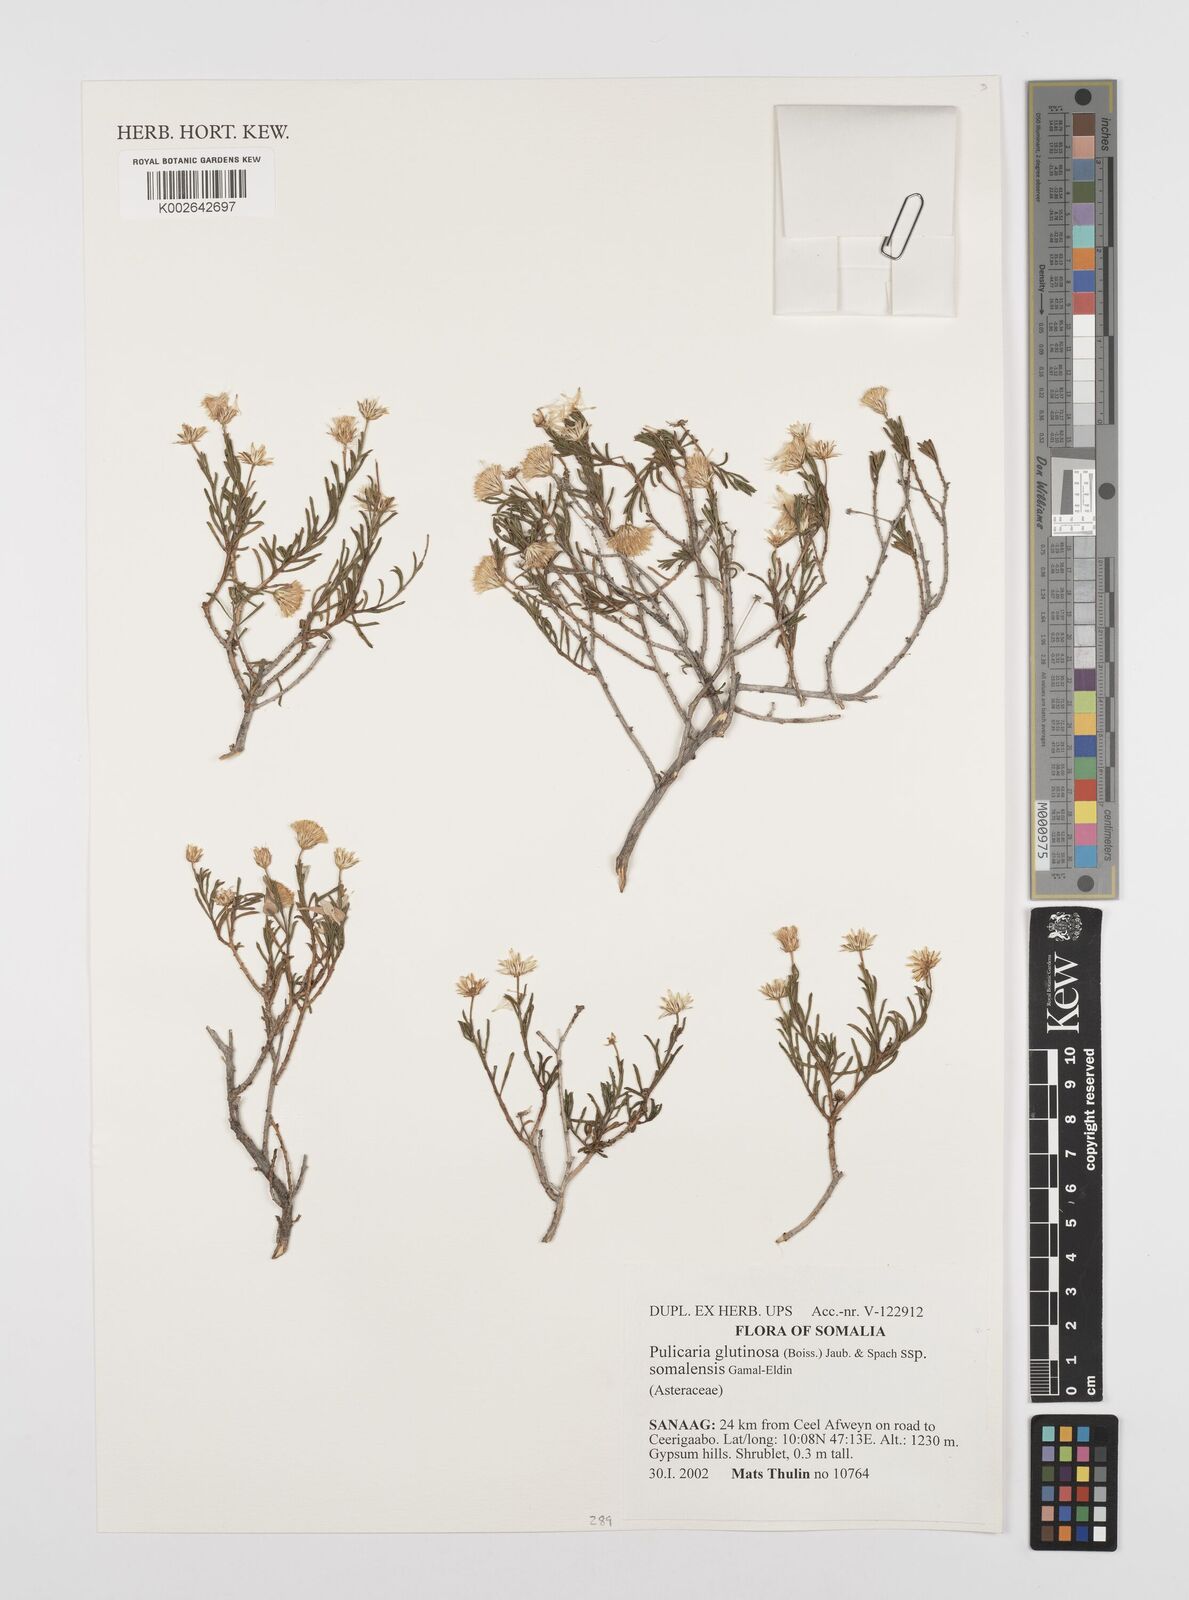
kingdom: Plantae
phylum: Tracheophyta
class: Magnoliopsida
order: Asterales
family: Asteraceae
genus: Pulicaria
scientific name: Pulicaria glutinosa
